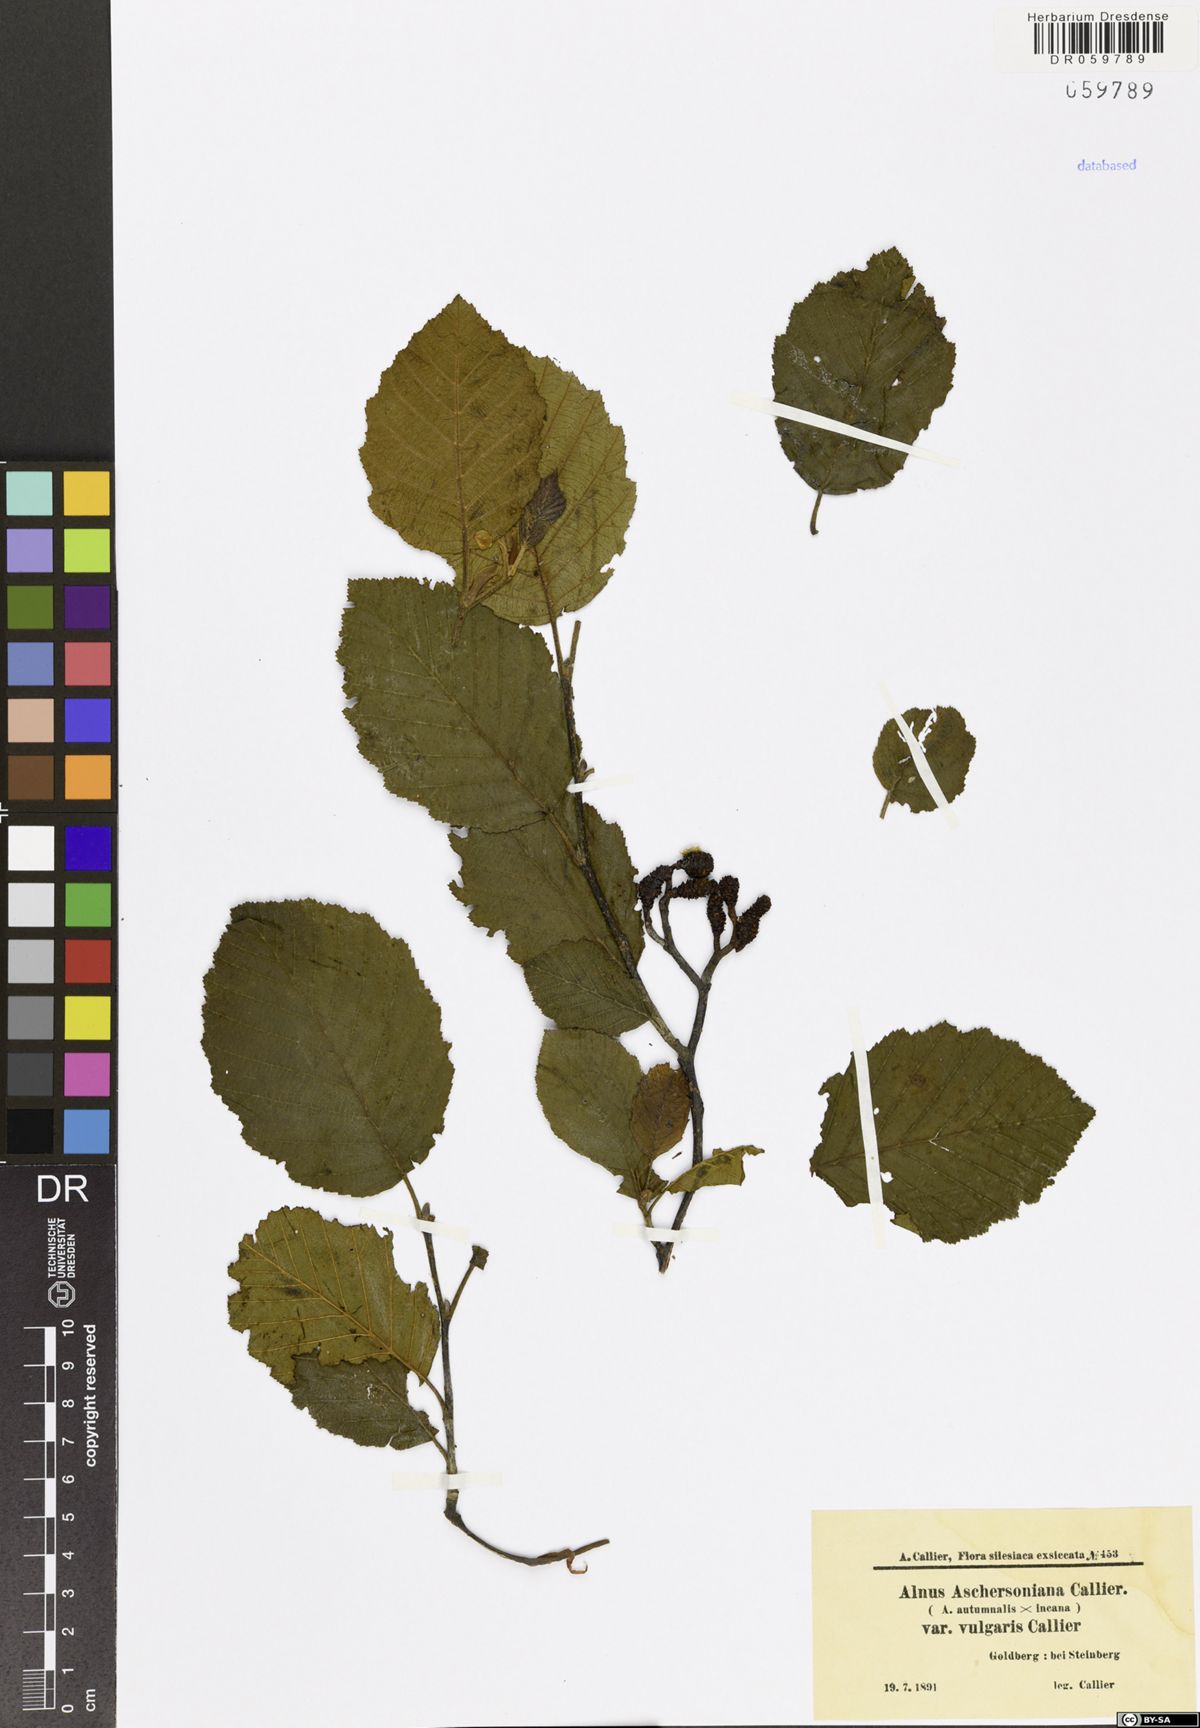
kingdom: Plantae
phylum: Tracheophyta
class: Magnoliopsida
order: Fagales
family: Betulaceae
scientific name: Betulaceae
